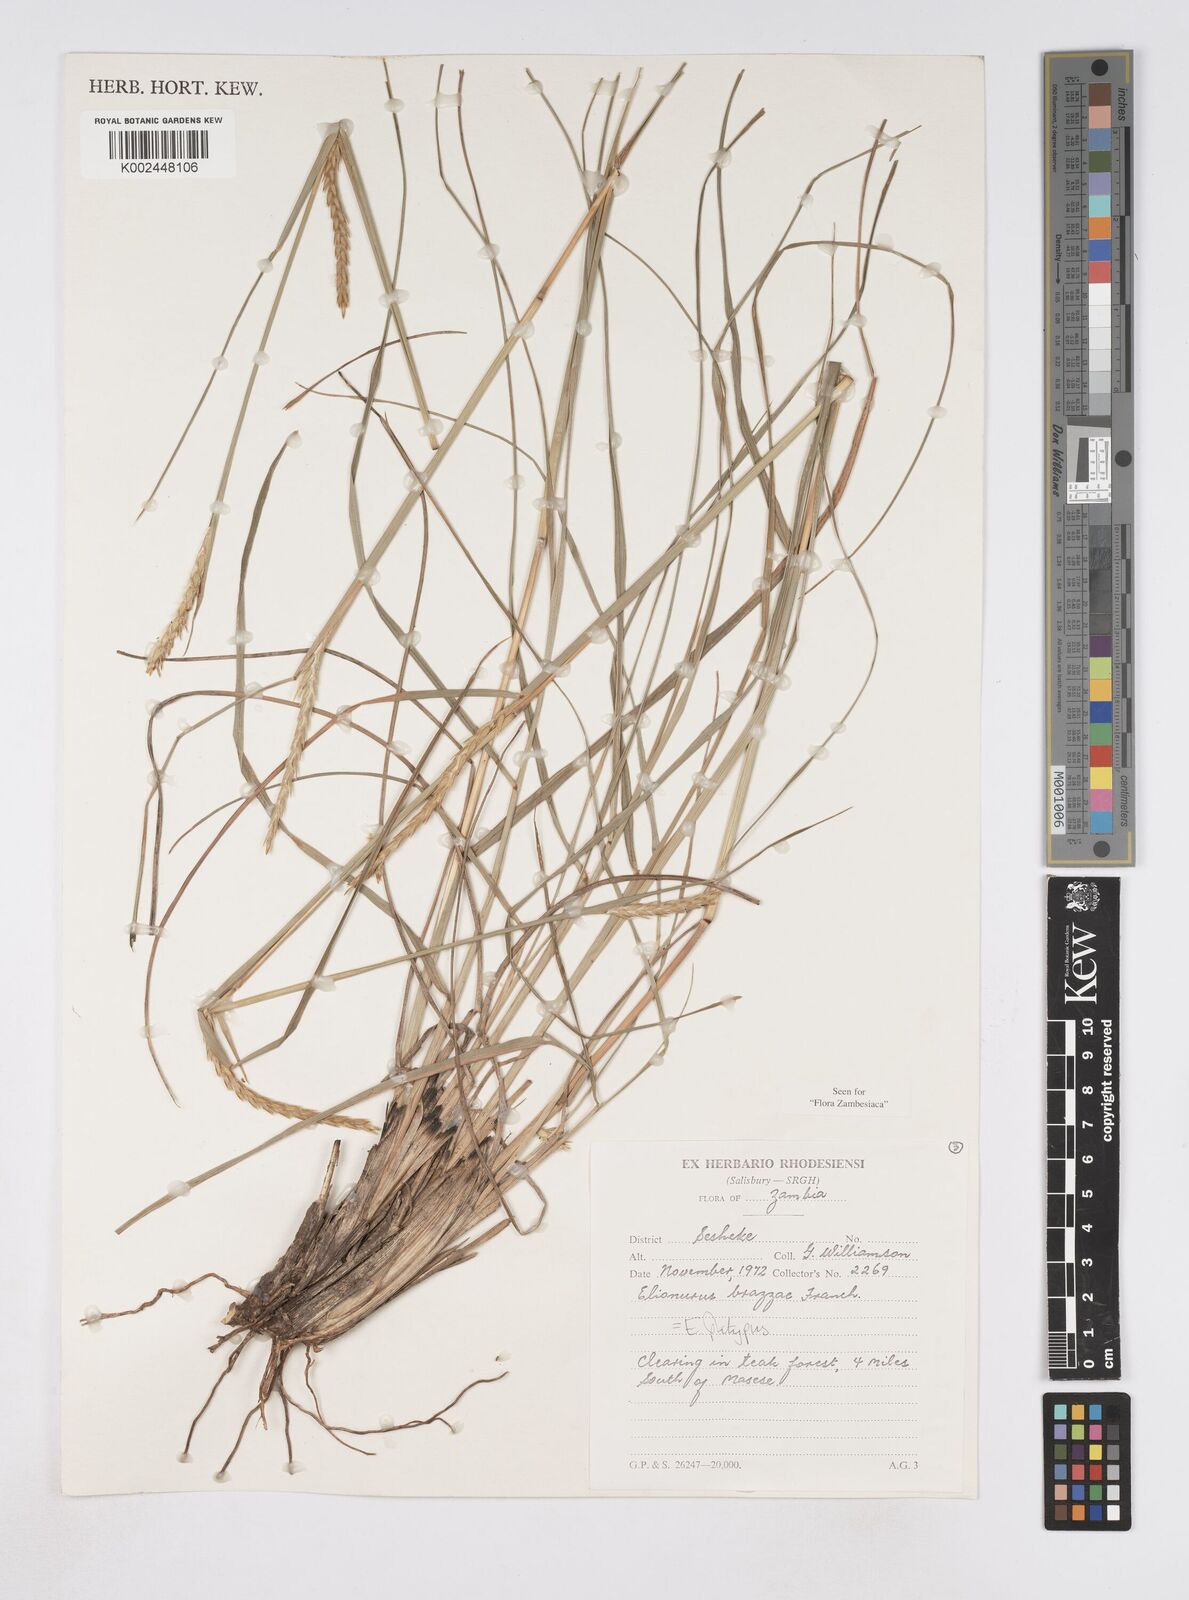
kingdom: Plantae
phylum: Tracheophyta
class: Liliopsida
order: Poales
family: Poaceae
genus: Elionurus
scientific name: Elionurus platypus
